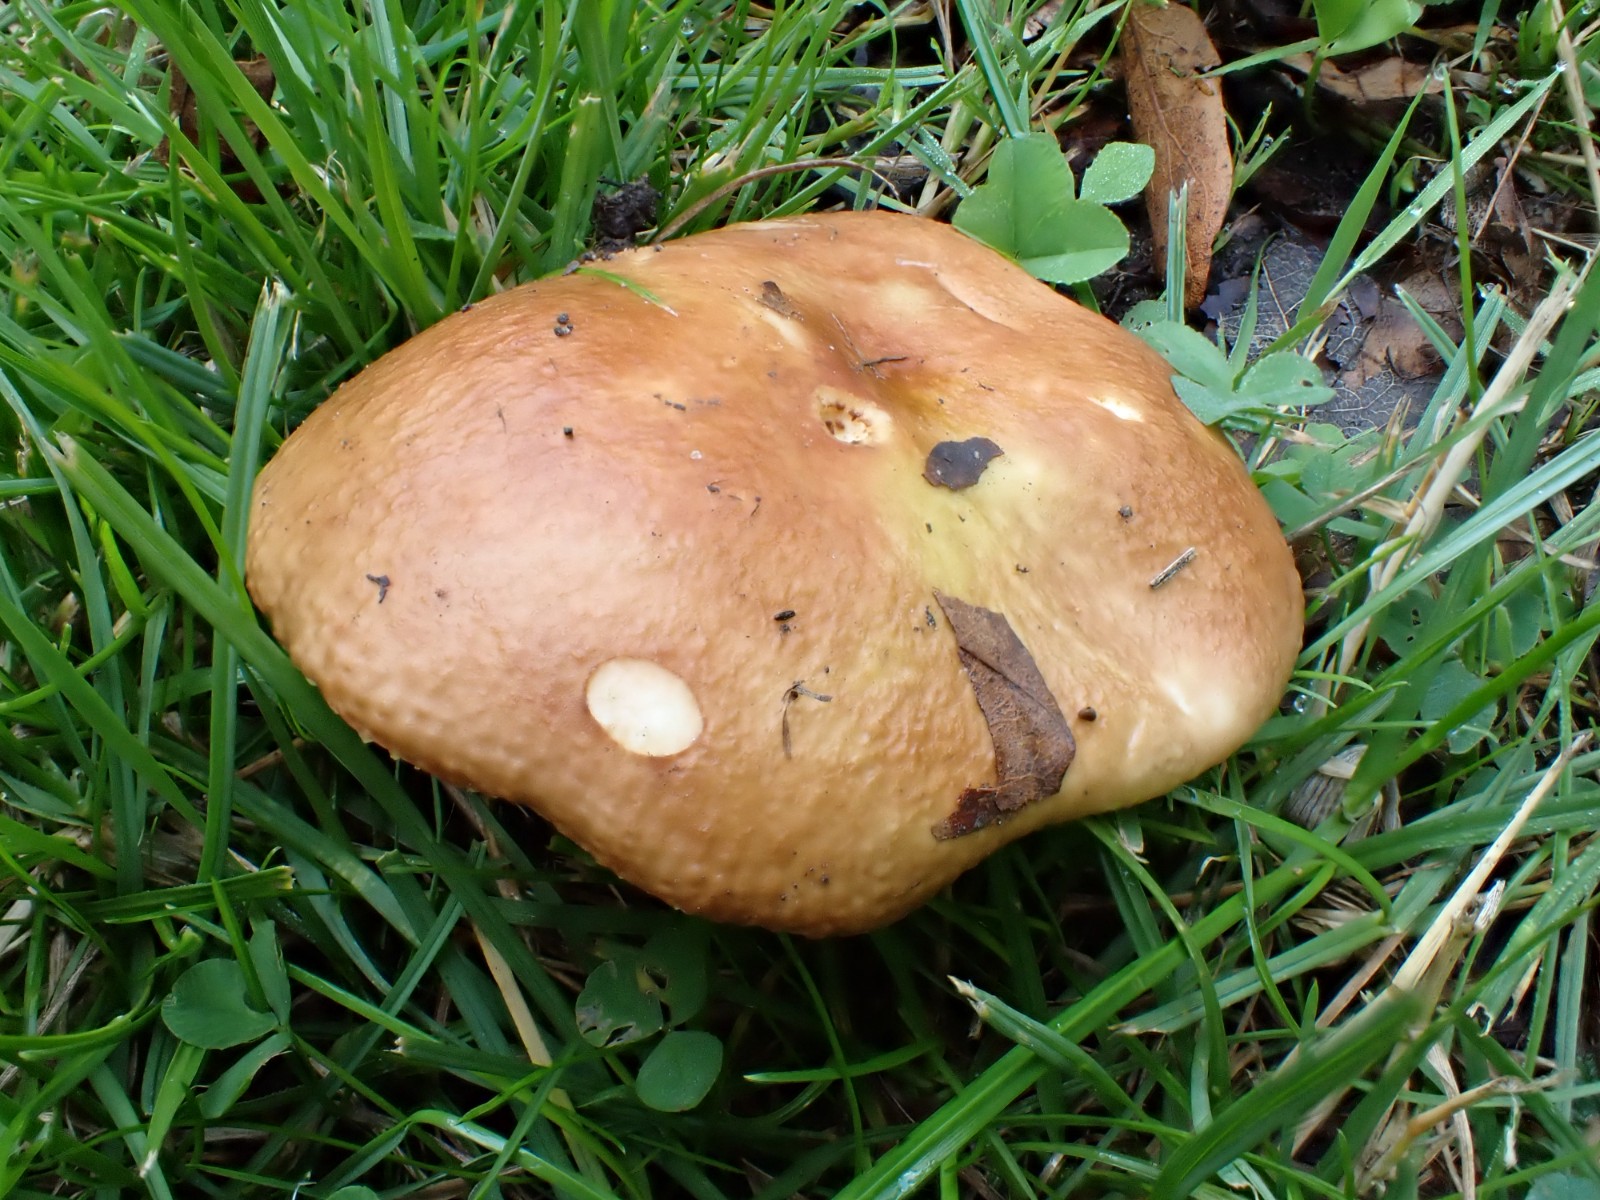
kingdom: Fungi
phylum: Basidiomycota
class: Agaricomycetes
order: Russulales
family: Russulaceae
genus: Russula
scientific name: Russula carpini
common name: avnbøg-skørhat
